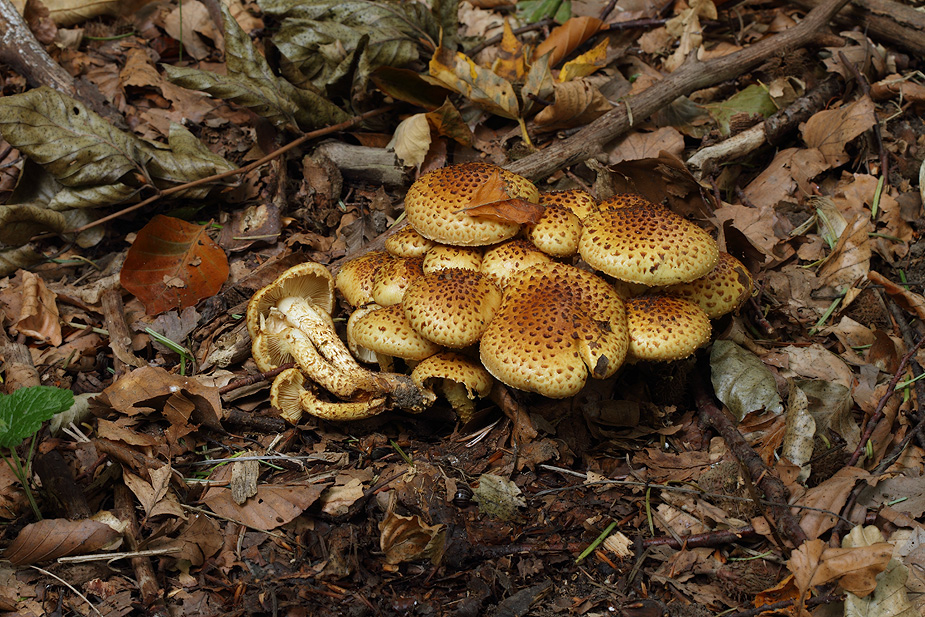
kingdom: Fungi
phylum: Basidiomycota
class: Agaricomycetes
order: Agaricales
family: Strophariaceae
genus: Pholiota
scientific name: Pholiota jahnii
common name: slimet skælhat
